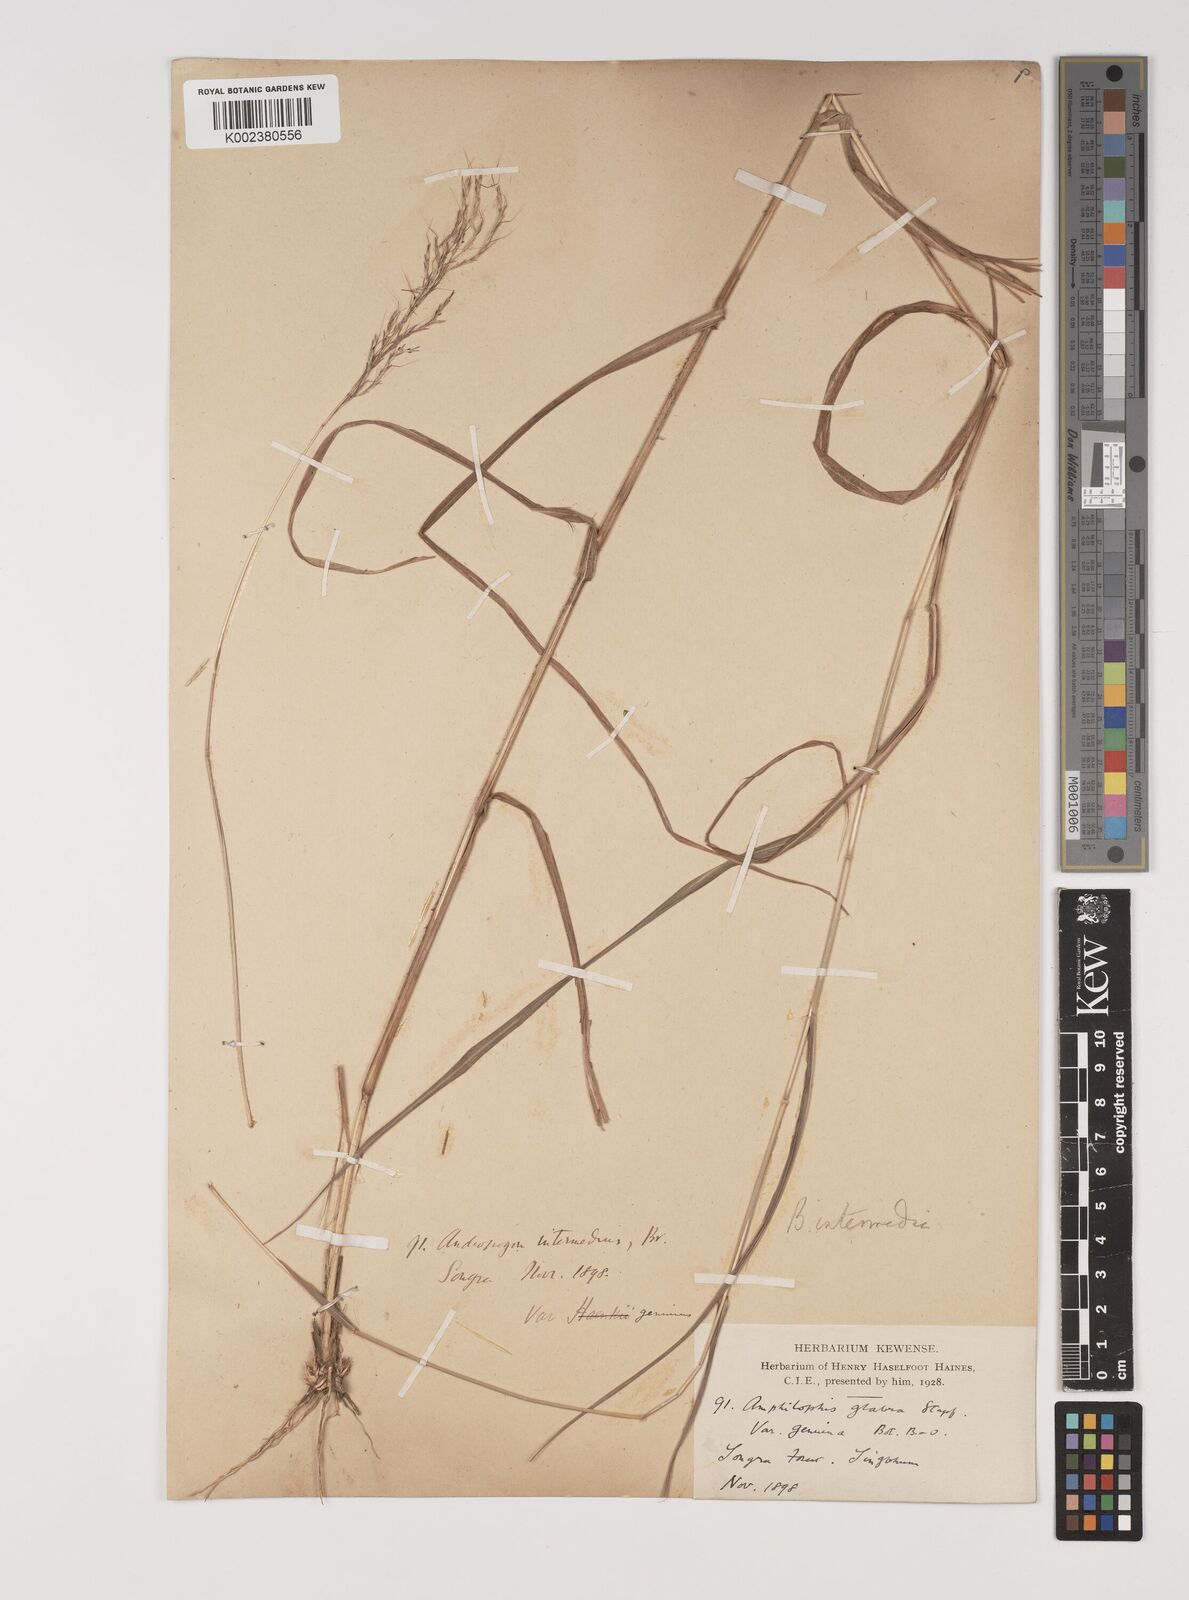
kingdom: Plantae
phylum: Tracheophyta
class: Liliopsida
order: Poales
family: Poaceae
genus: Bothriochloa
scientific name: Bothriochloa bladhii
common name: Caucasian bluestem
